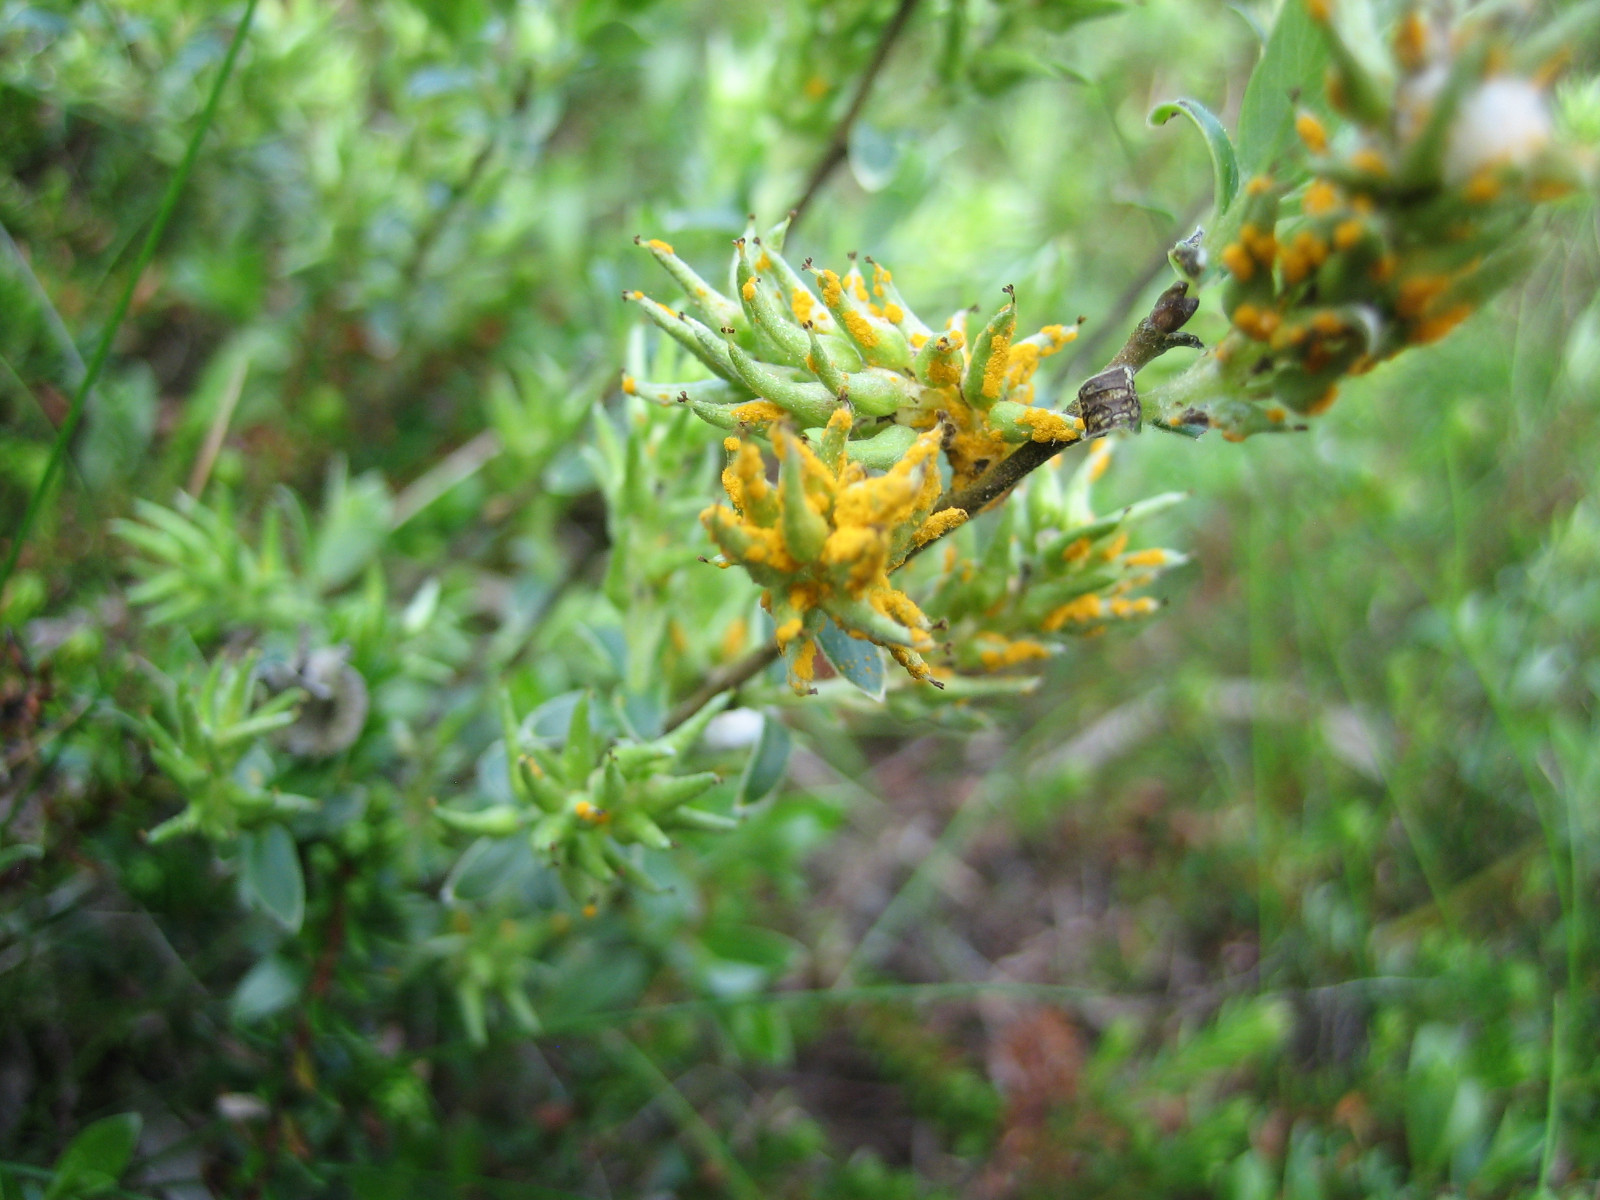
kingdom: Fungi
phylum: Basidiomycota
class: Pucciniomycetes
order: Pucciniales
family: Melampsoraceae
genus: Melampsora
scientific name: Melampsora epitea
